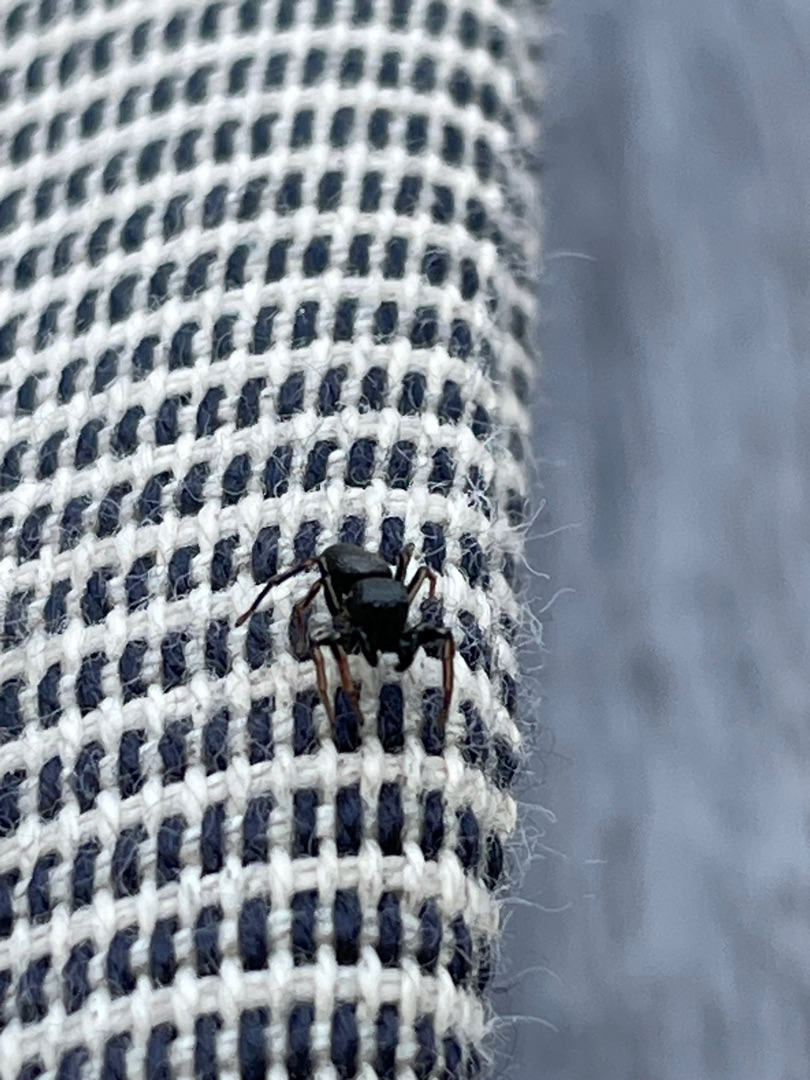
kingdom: Animalia
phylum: Arthropoda
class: Arachnida
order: Araneae
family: Salticidae
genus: Heliophanus
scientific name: Heliophanus
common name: Sortspringerslægten
